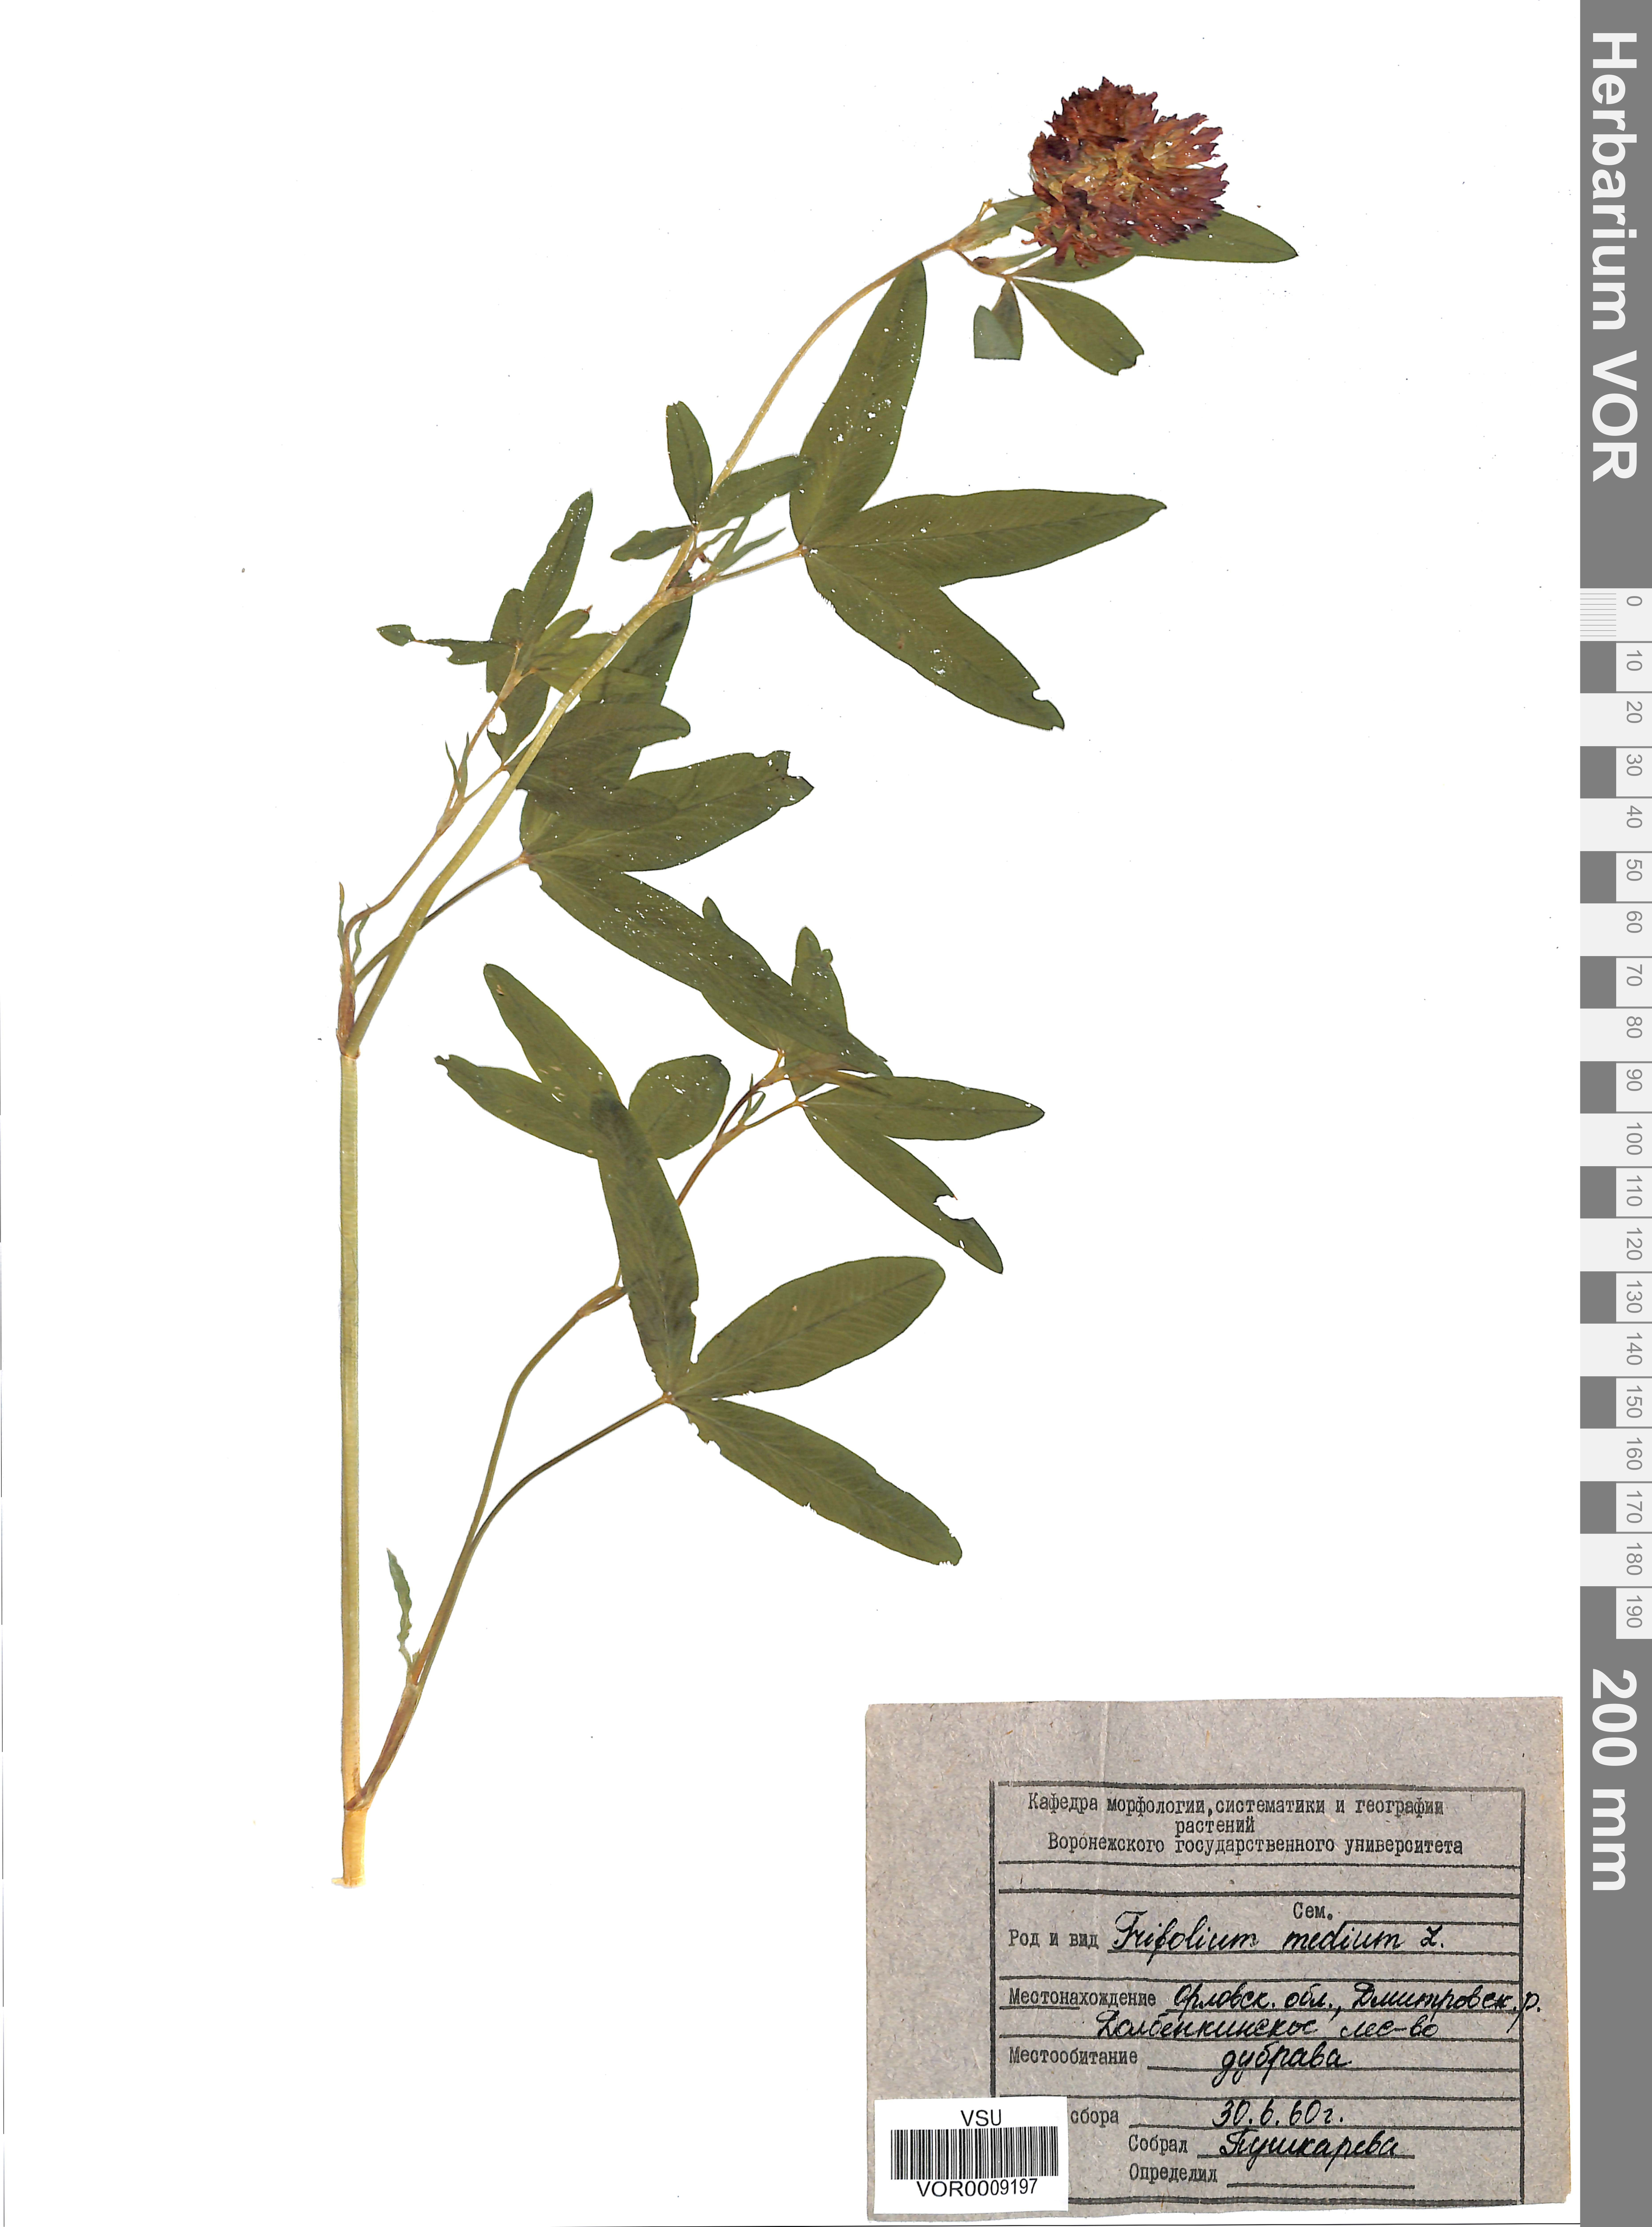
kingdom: Plantae
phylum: Tracheophyta
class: Magnoliopsida
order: Fabales
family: Fabaceae
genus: Trifolium
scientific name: Trifolium medium
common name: Zigzag clover
